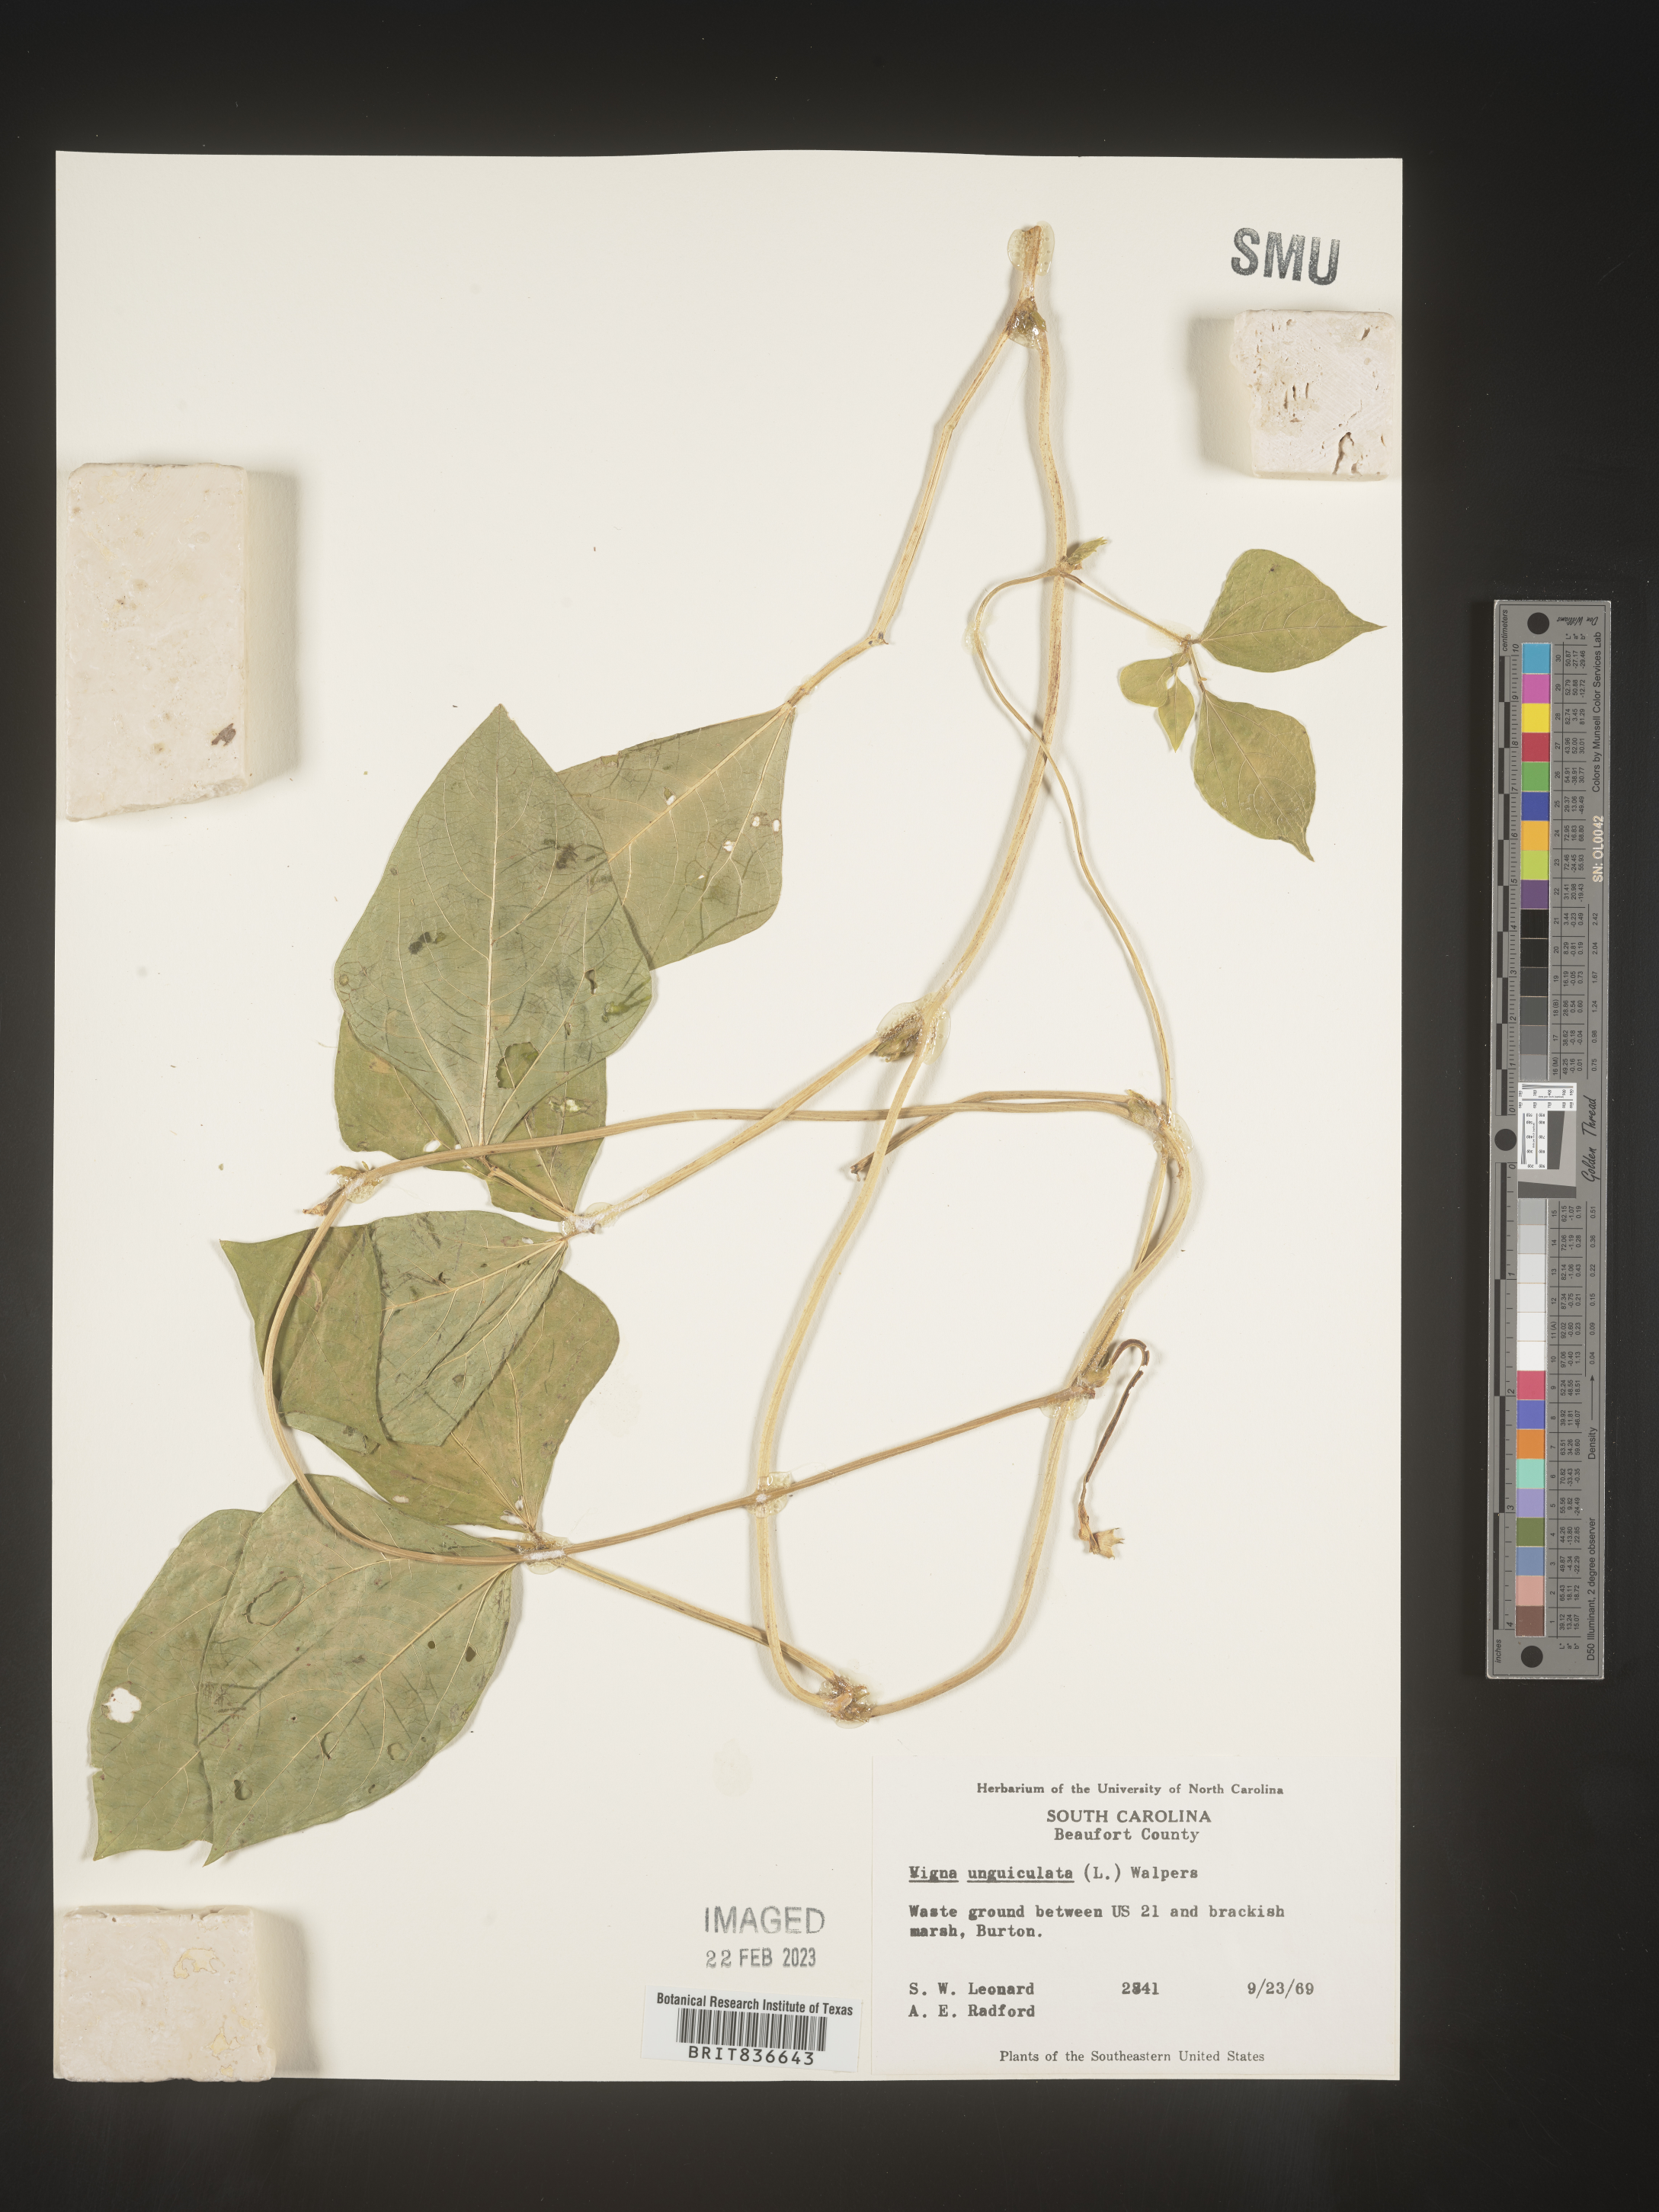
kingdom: Plantae
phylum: Tracheophyta
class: Magnoliopsida
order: Fabales
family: Fabaceae
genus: Vigna
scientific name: Vigna
